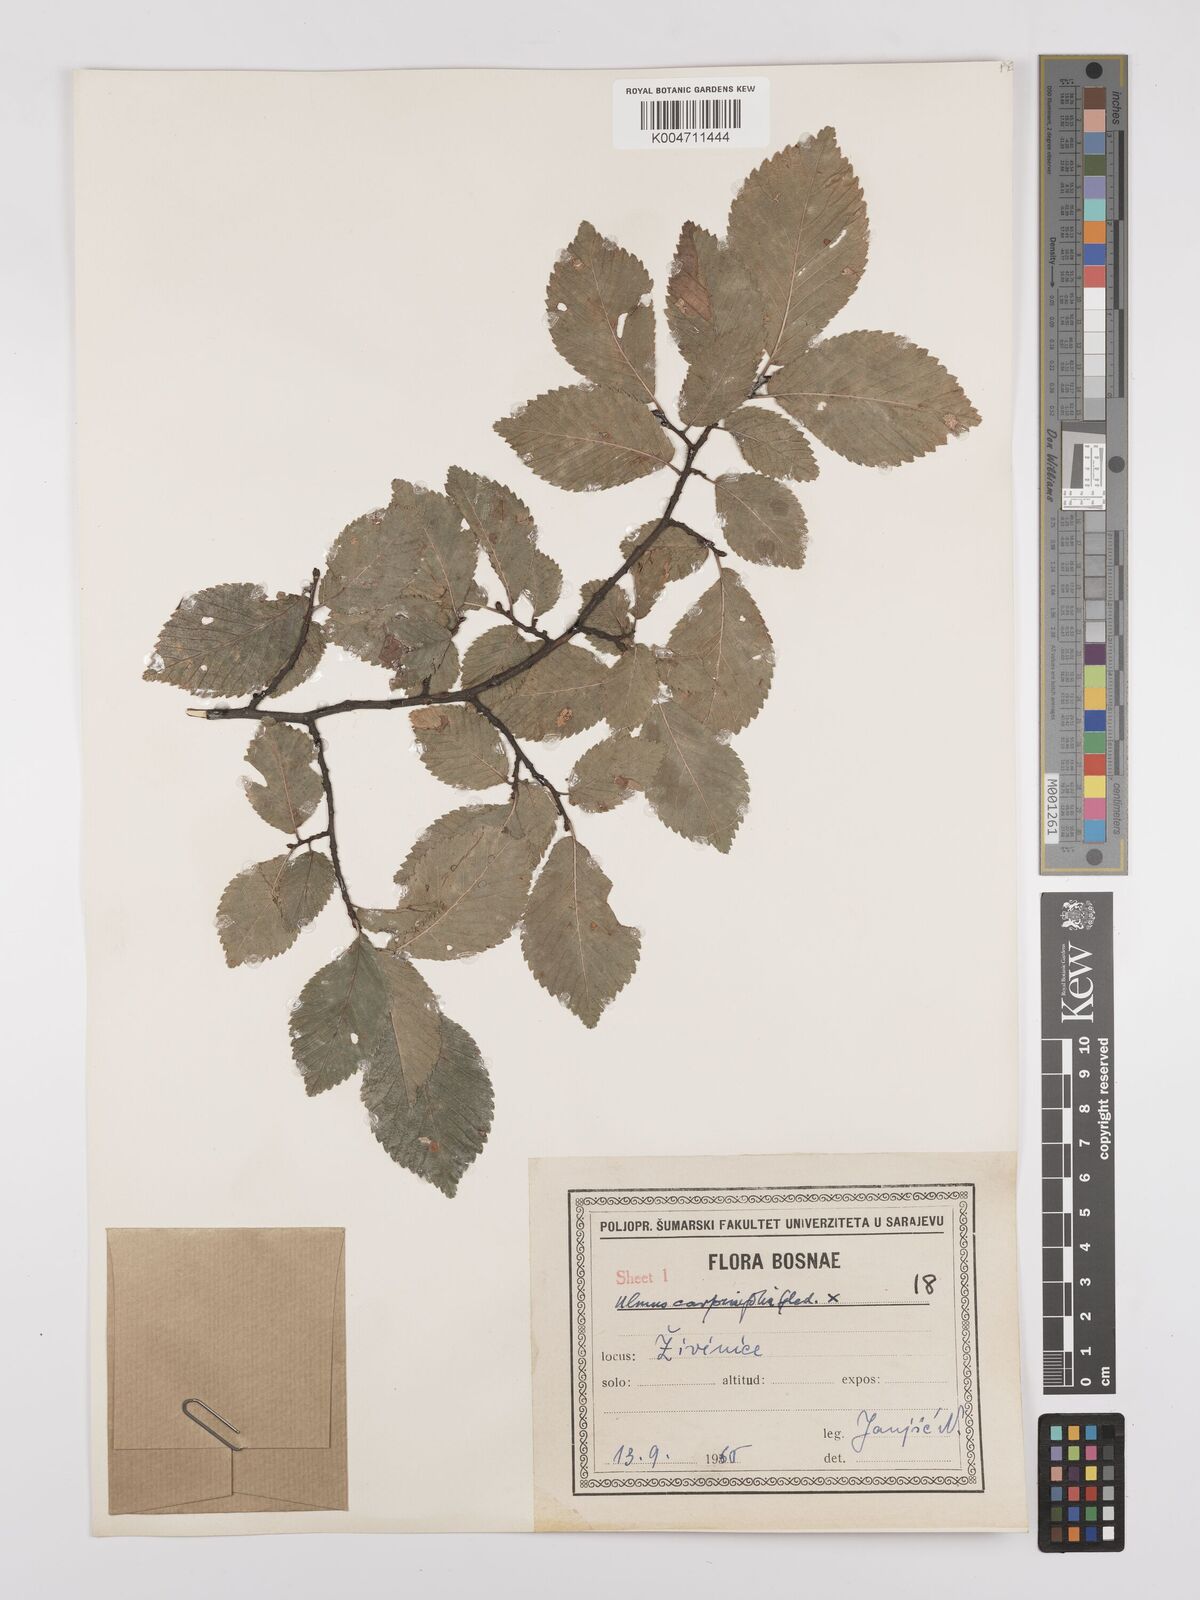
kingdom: Plantae
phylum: Tracheophyta
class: Magnoliopsida
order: Rosales
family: Ulmaceae
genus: Ulmus
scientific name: Ulmus minor
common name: Small-leaved elm
